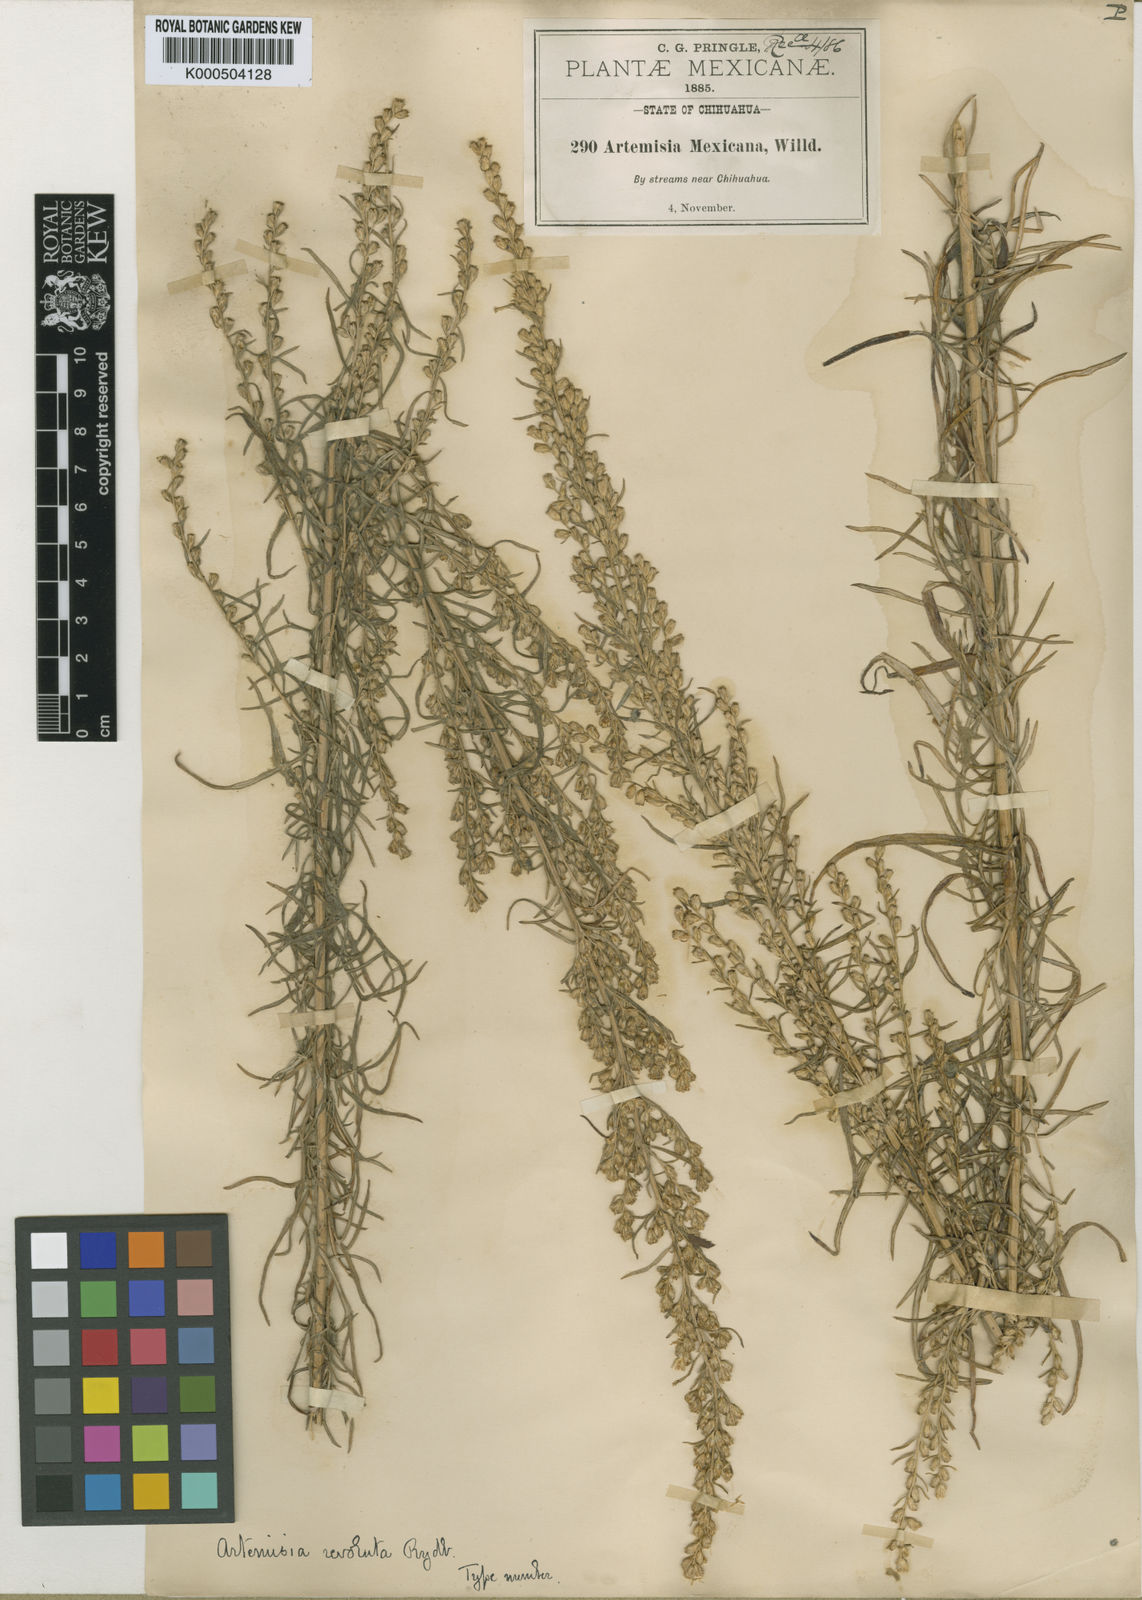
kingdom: Plantae
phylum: Tracheophyta
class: Magnoliopsida
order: Asterales
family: Asteraceae
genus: Artemisia
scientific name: Artemisia ludoviciana
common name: Western mugwort
